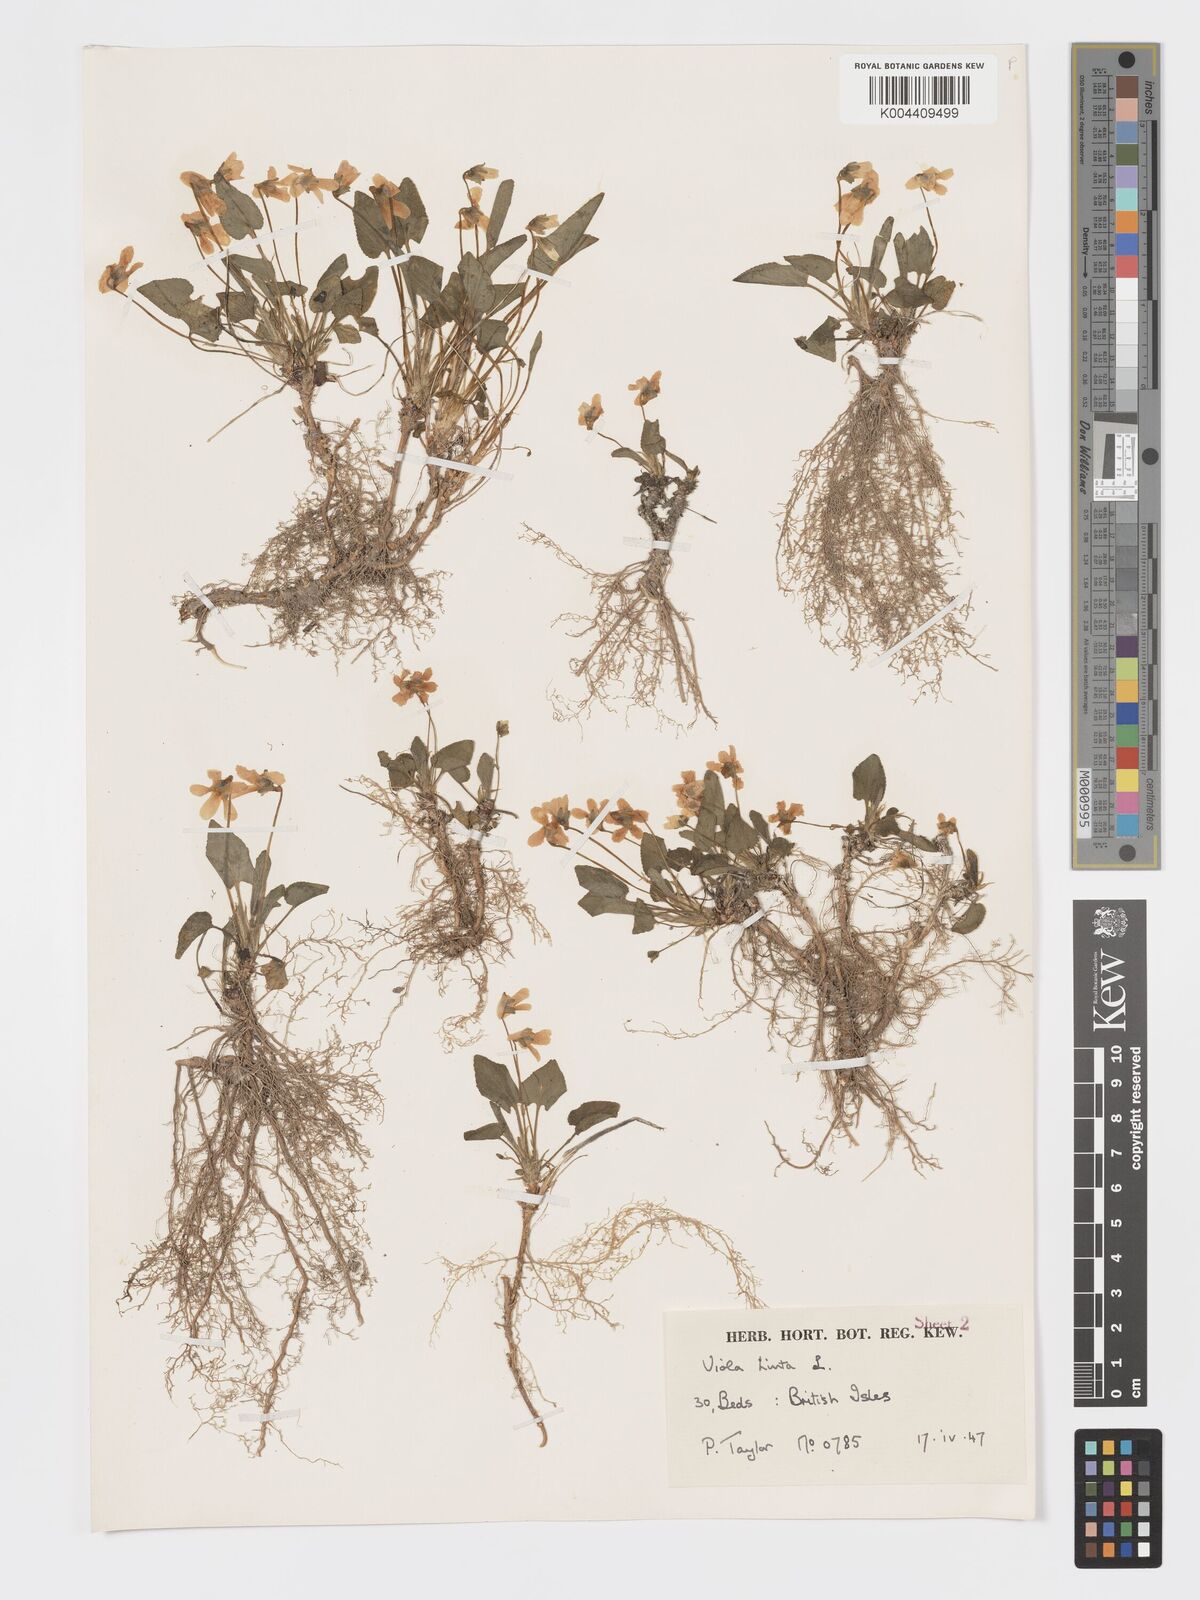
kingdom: Plantae
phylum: Tracheophyta
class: Magnoliopsida
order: Malpighiales
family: Violaceae
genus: Viola
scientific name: Viola
